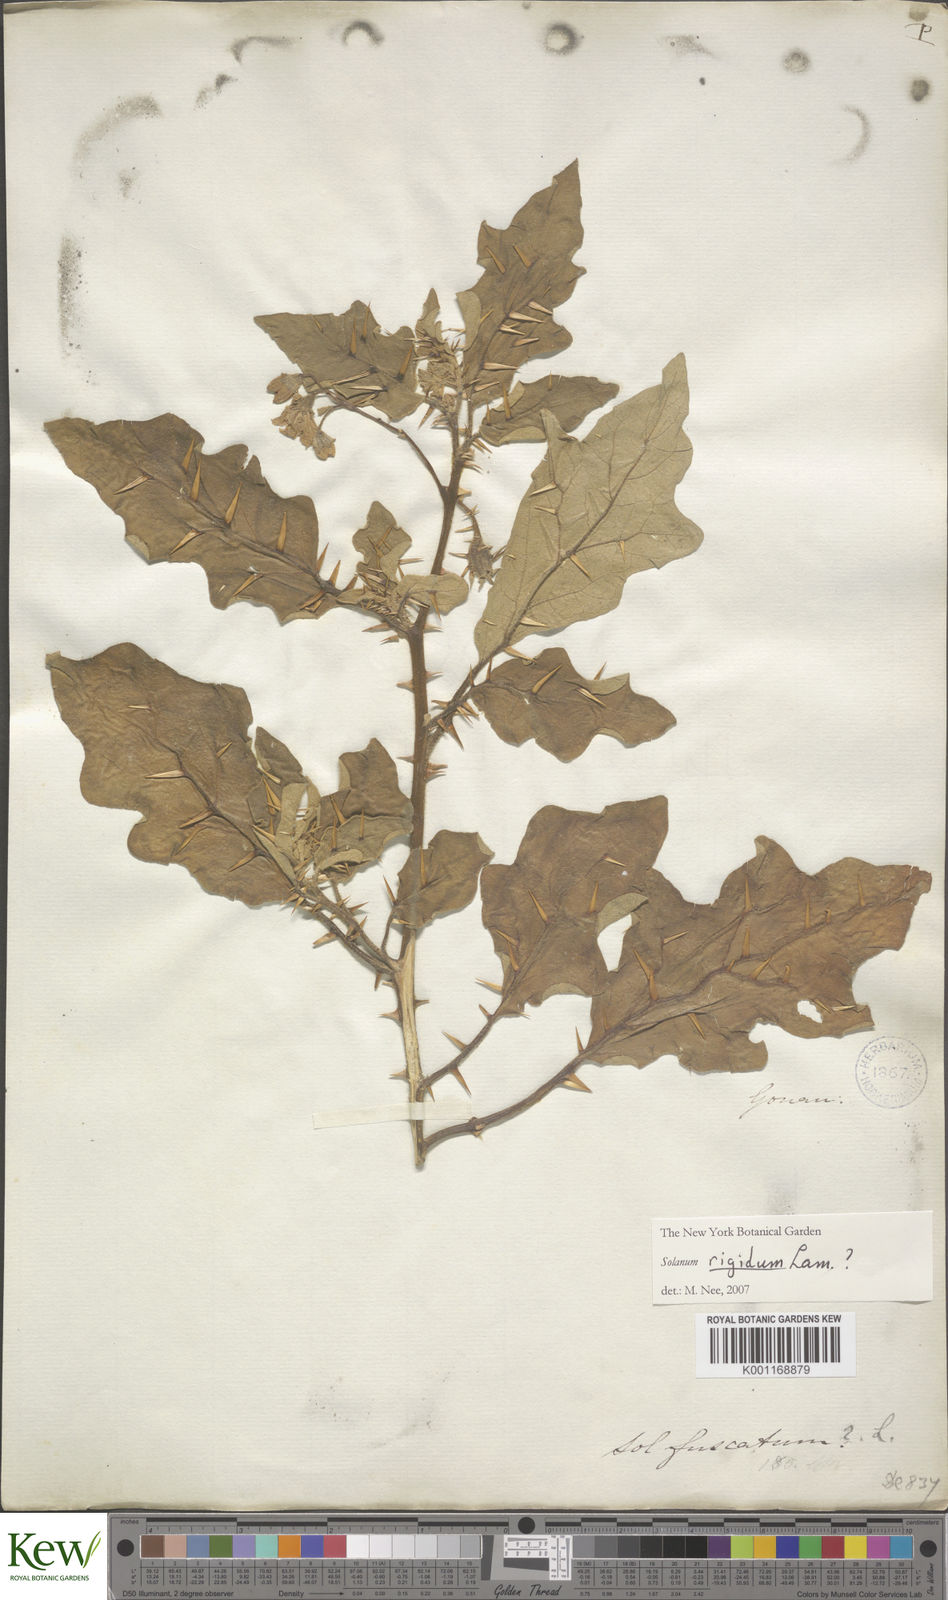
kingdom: Plantae
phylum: Tracheophyta
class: Magnoliopsida
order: Solanales
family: Solanaceae
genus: Solanum
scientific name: Solanum insanum
